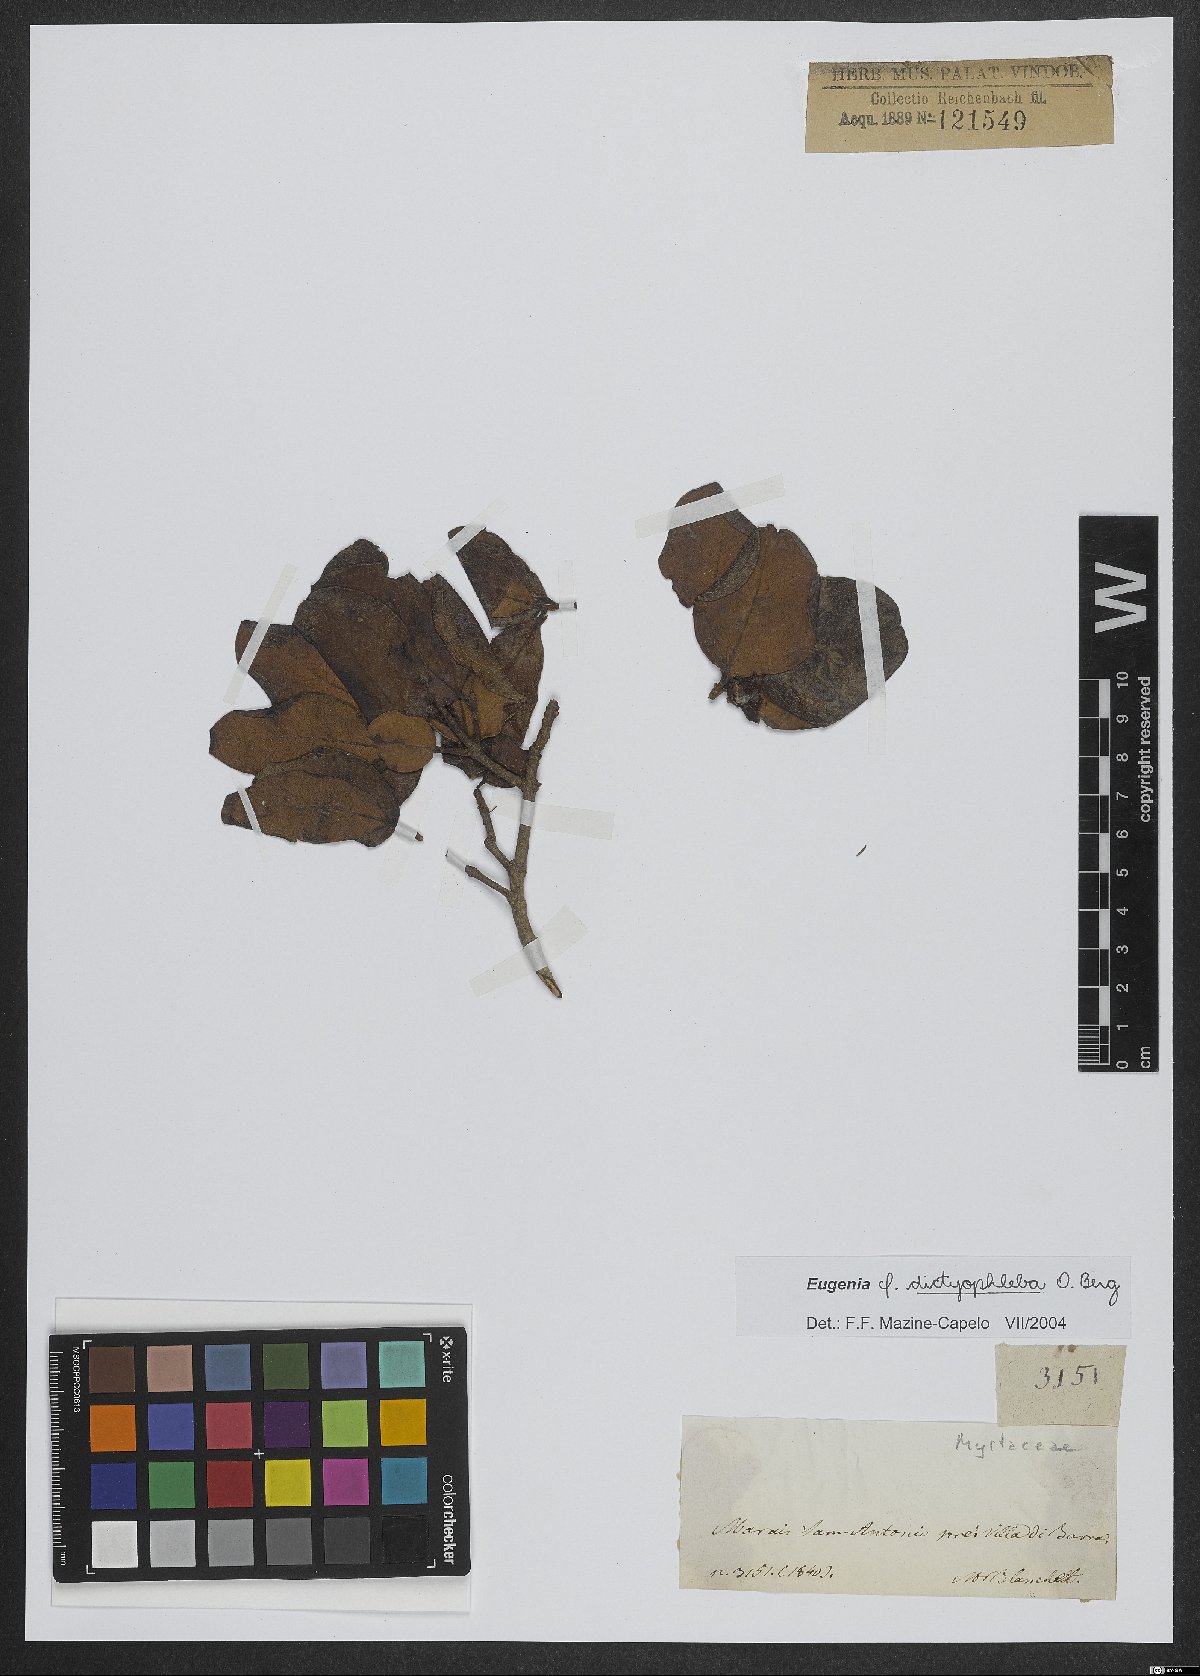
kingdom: Plantae
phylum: Tracheophyta
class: Magnoliopsida
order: Myrtales
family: Myrtaceae
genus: Eugenia
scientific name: Eugenia dictyophleba
